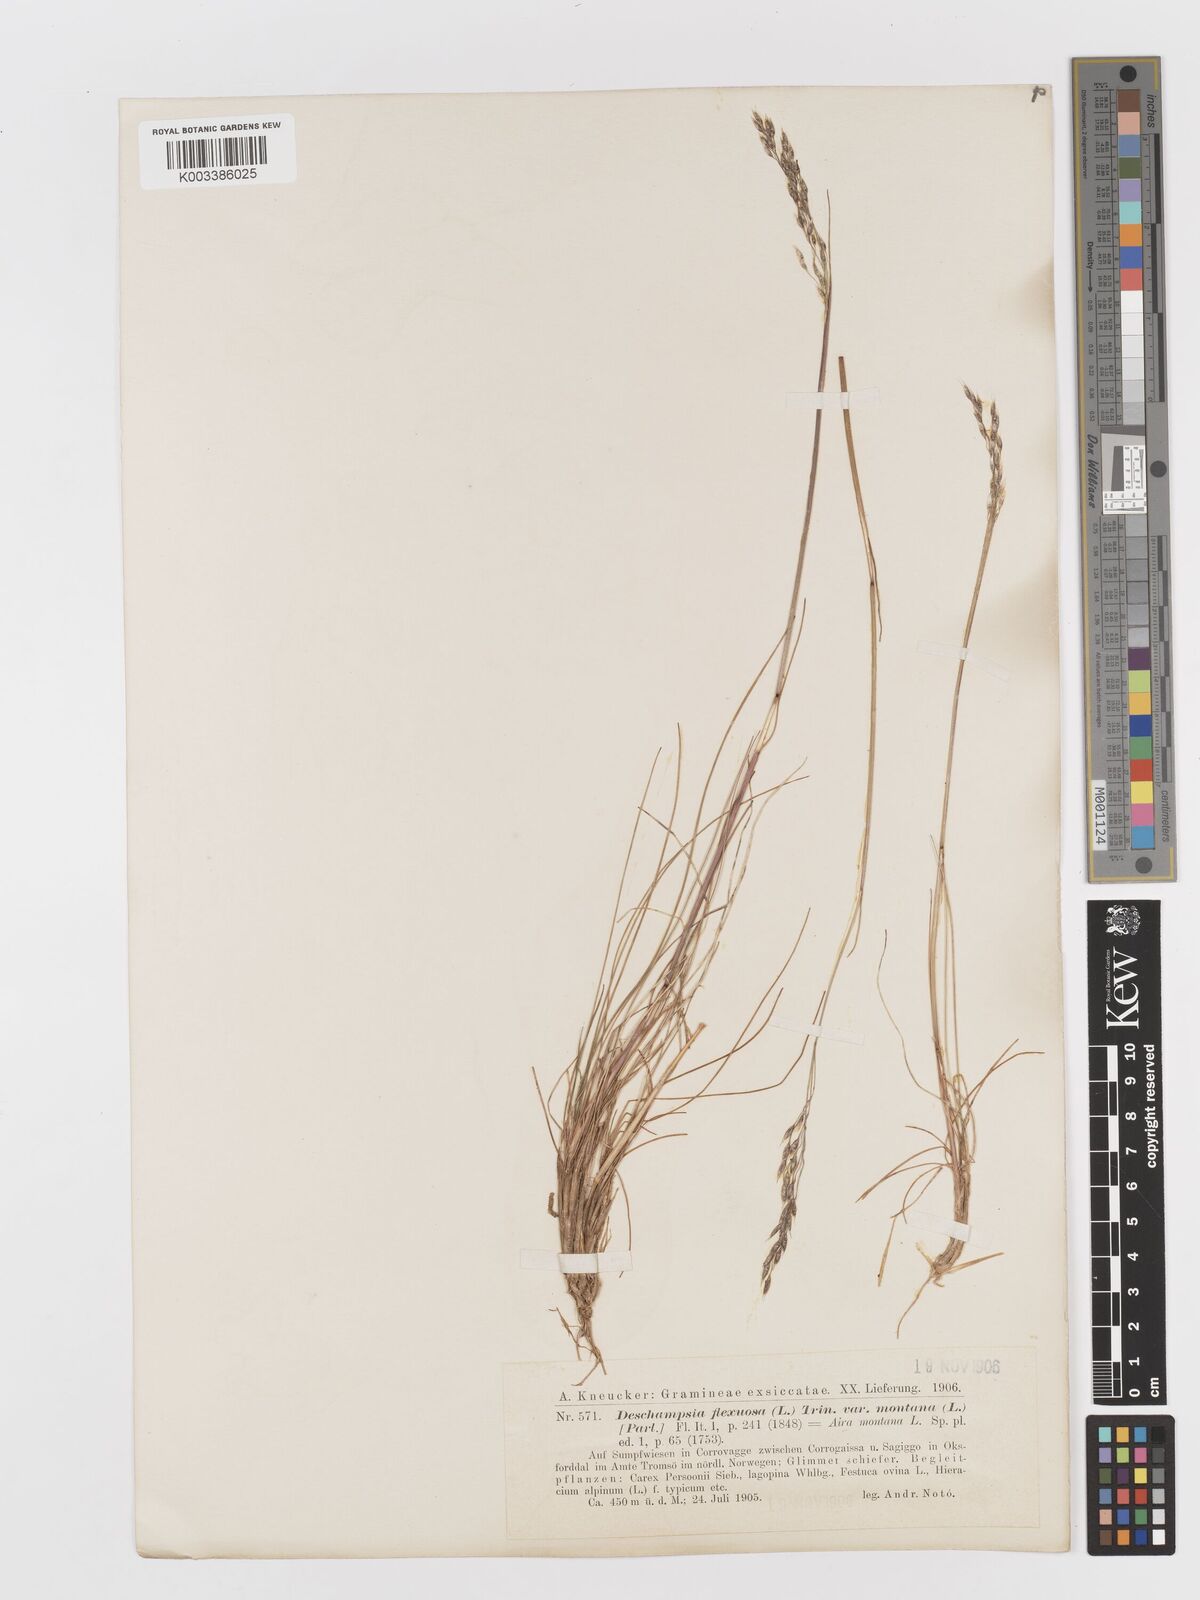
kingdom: Plantae
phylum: Tracheophyta
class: Liliopsida
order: Poales
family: Poaceae
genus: Avenella
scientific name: Avenella flexuosa
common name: Wavy hairgrass
